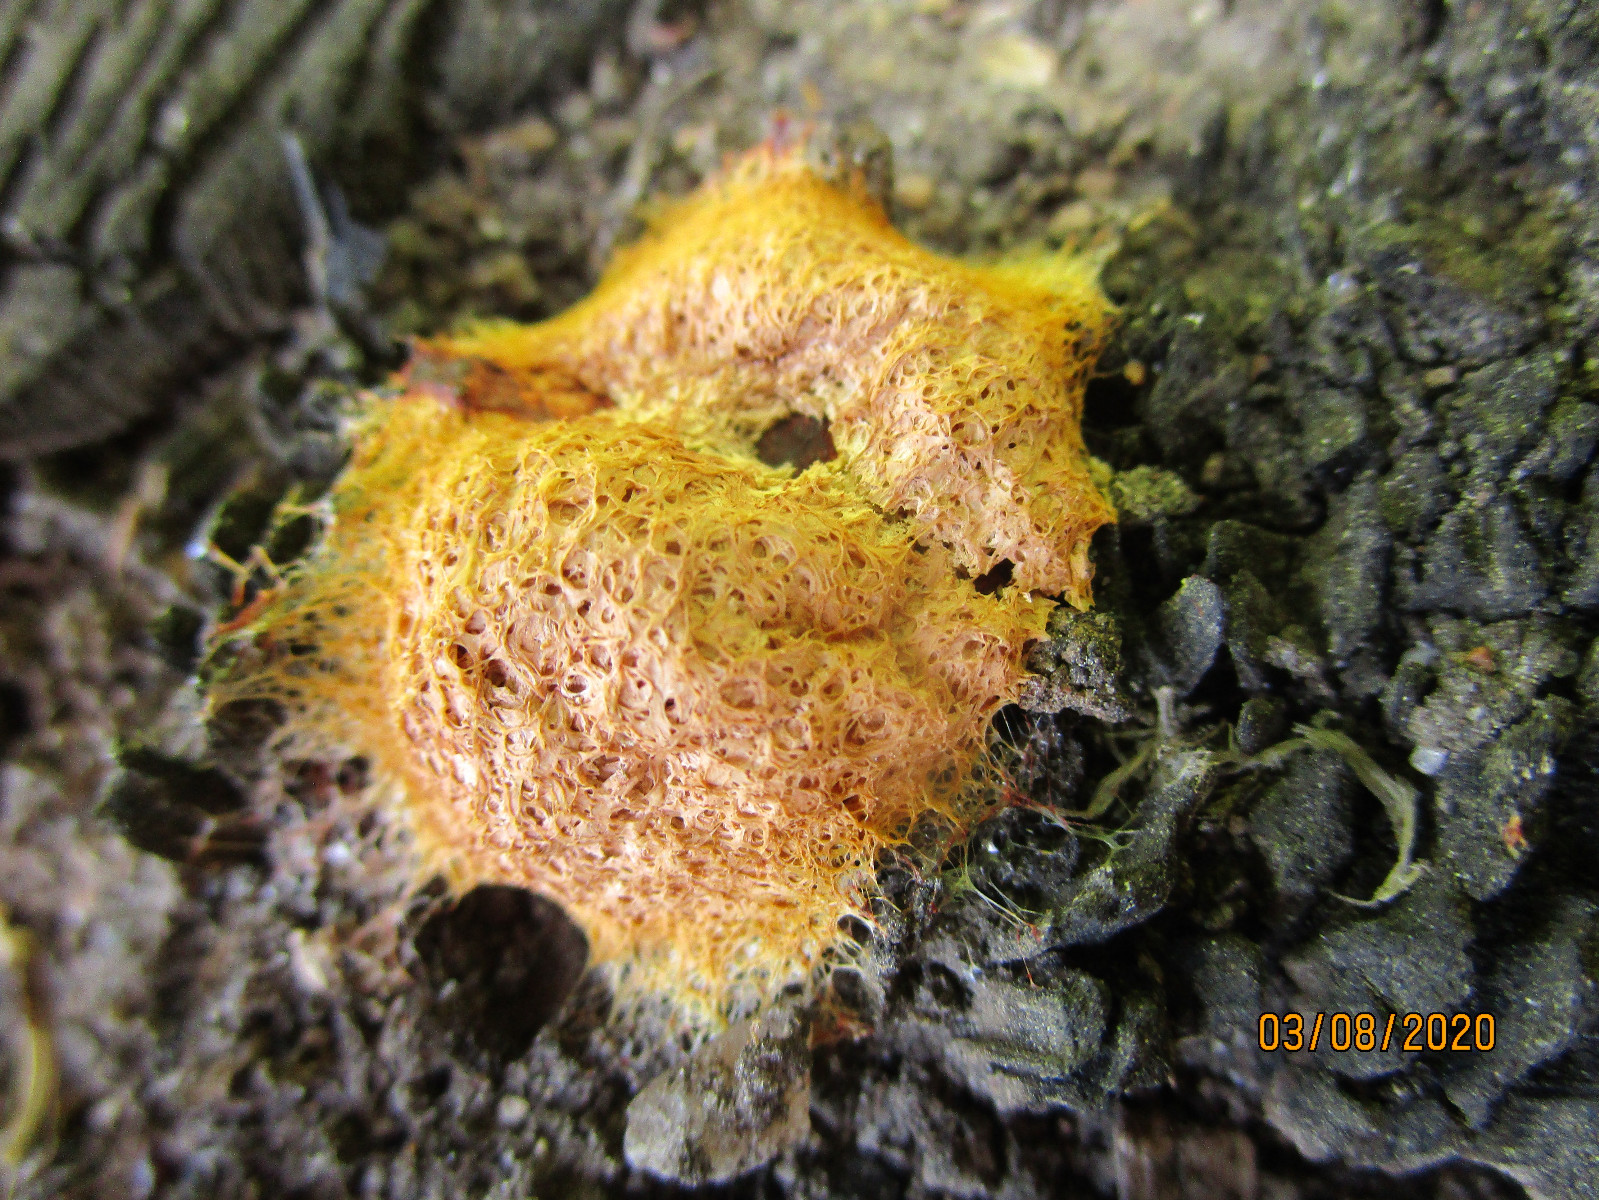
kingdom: Protozoa
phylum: Mycetozoa
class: Myxomycetes
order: Physarales
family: Physaraceae
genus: Fuligo
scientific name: Fuligo septica
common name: Dog vomit slime mold
